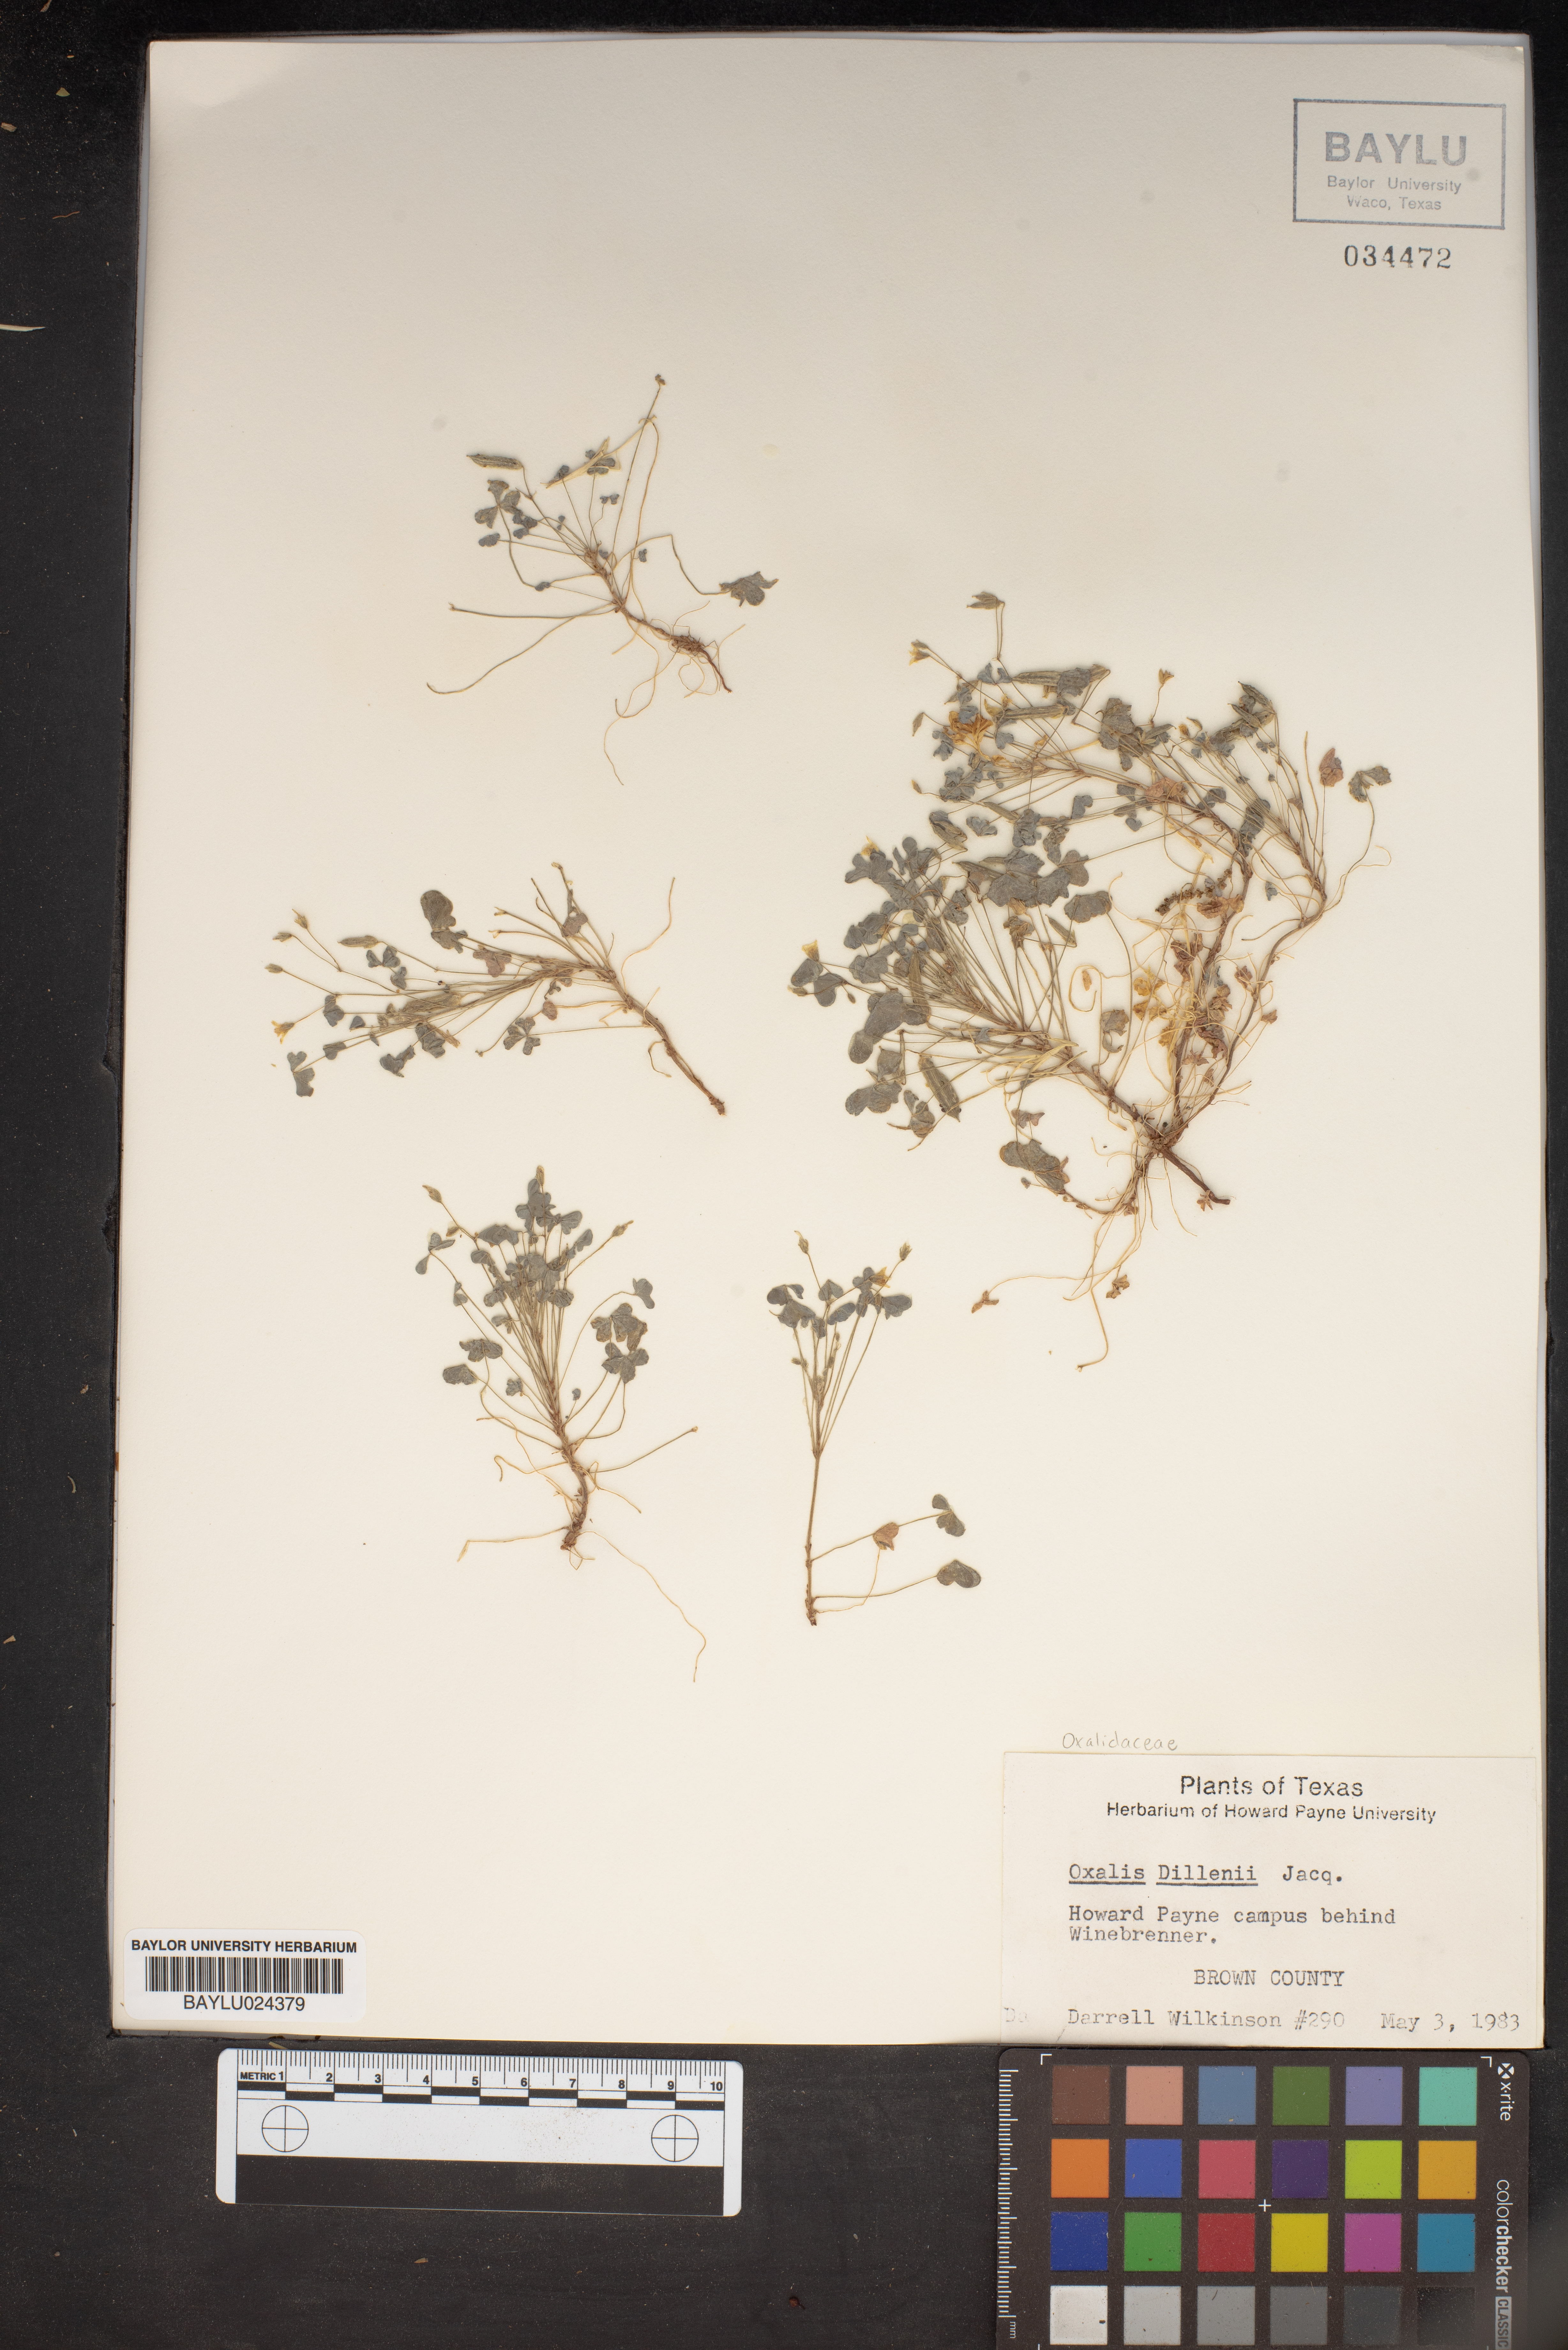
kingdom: Plantae
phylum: Tracheophyta
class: Magnoliopsida
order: Oxalidales
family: Oxalidaceae
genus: Oxalis
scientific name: Oxalis dillenii
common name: Sussex yellow-sorrel
